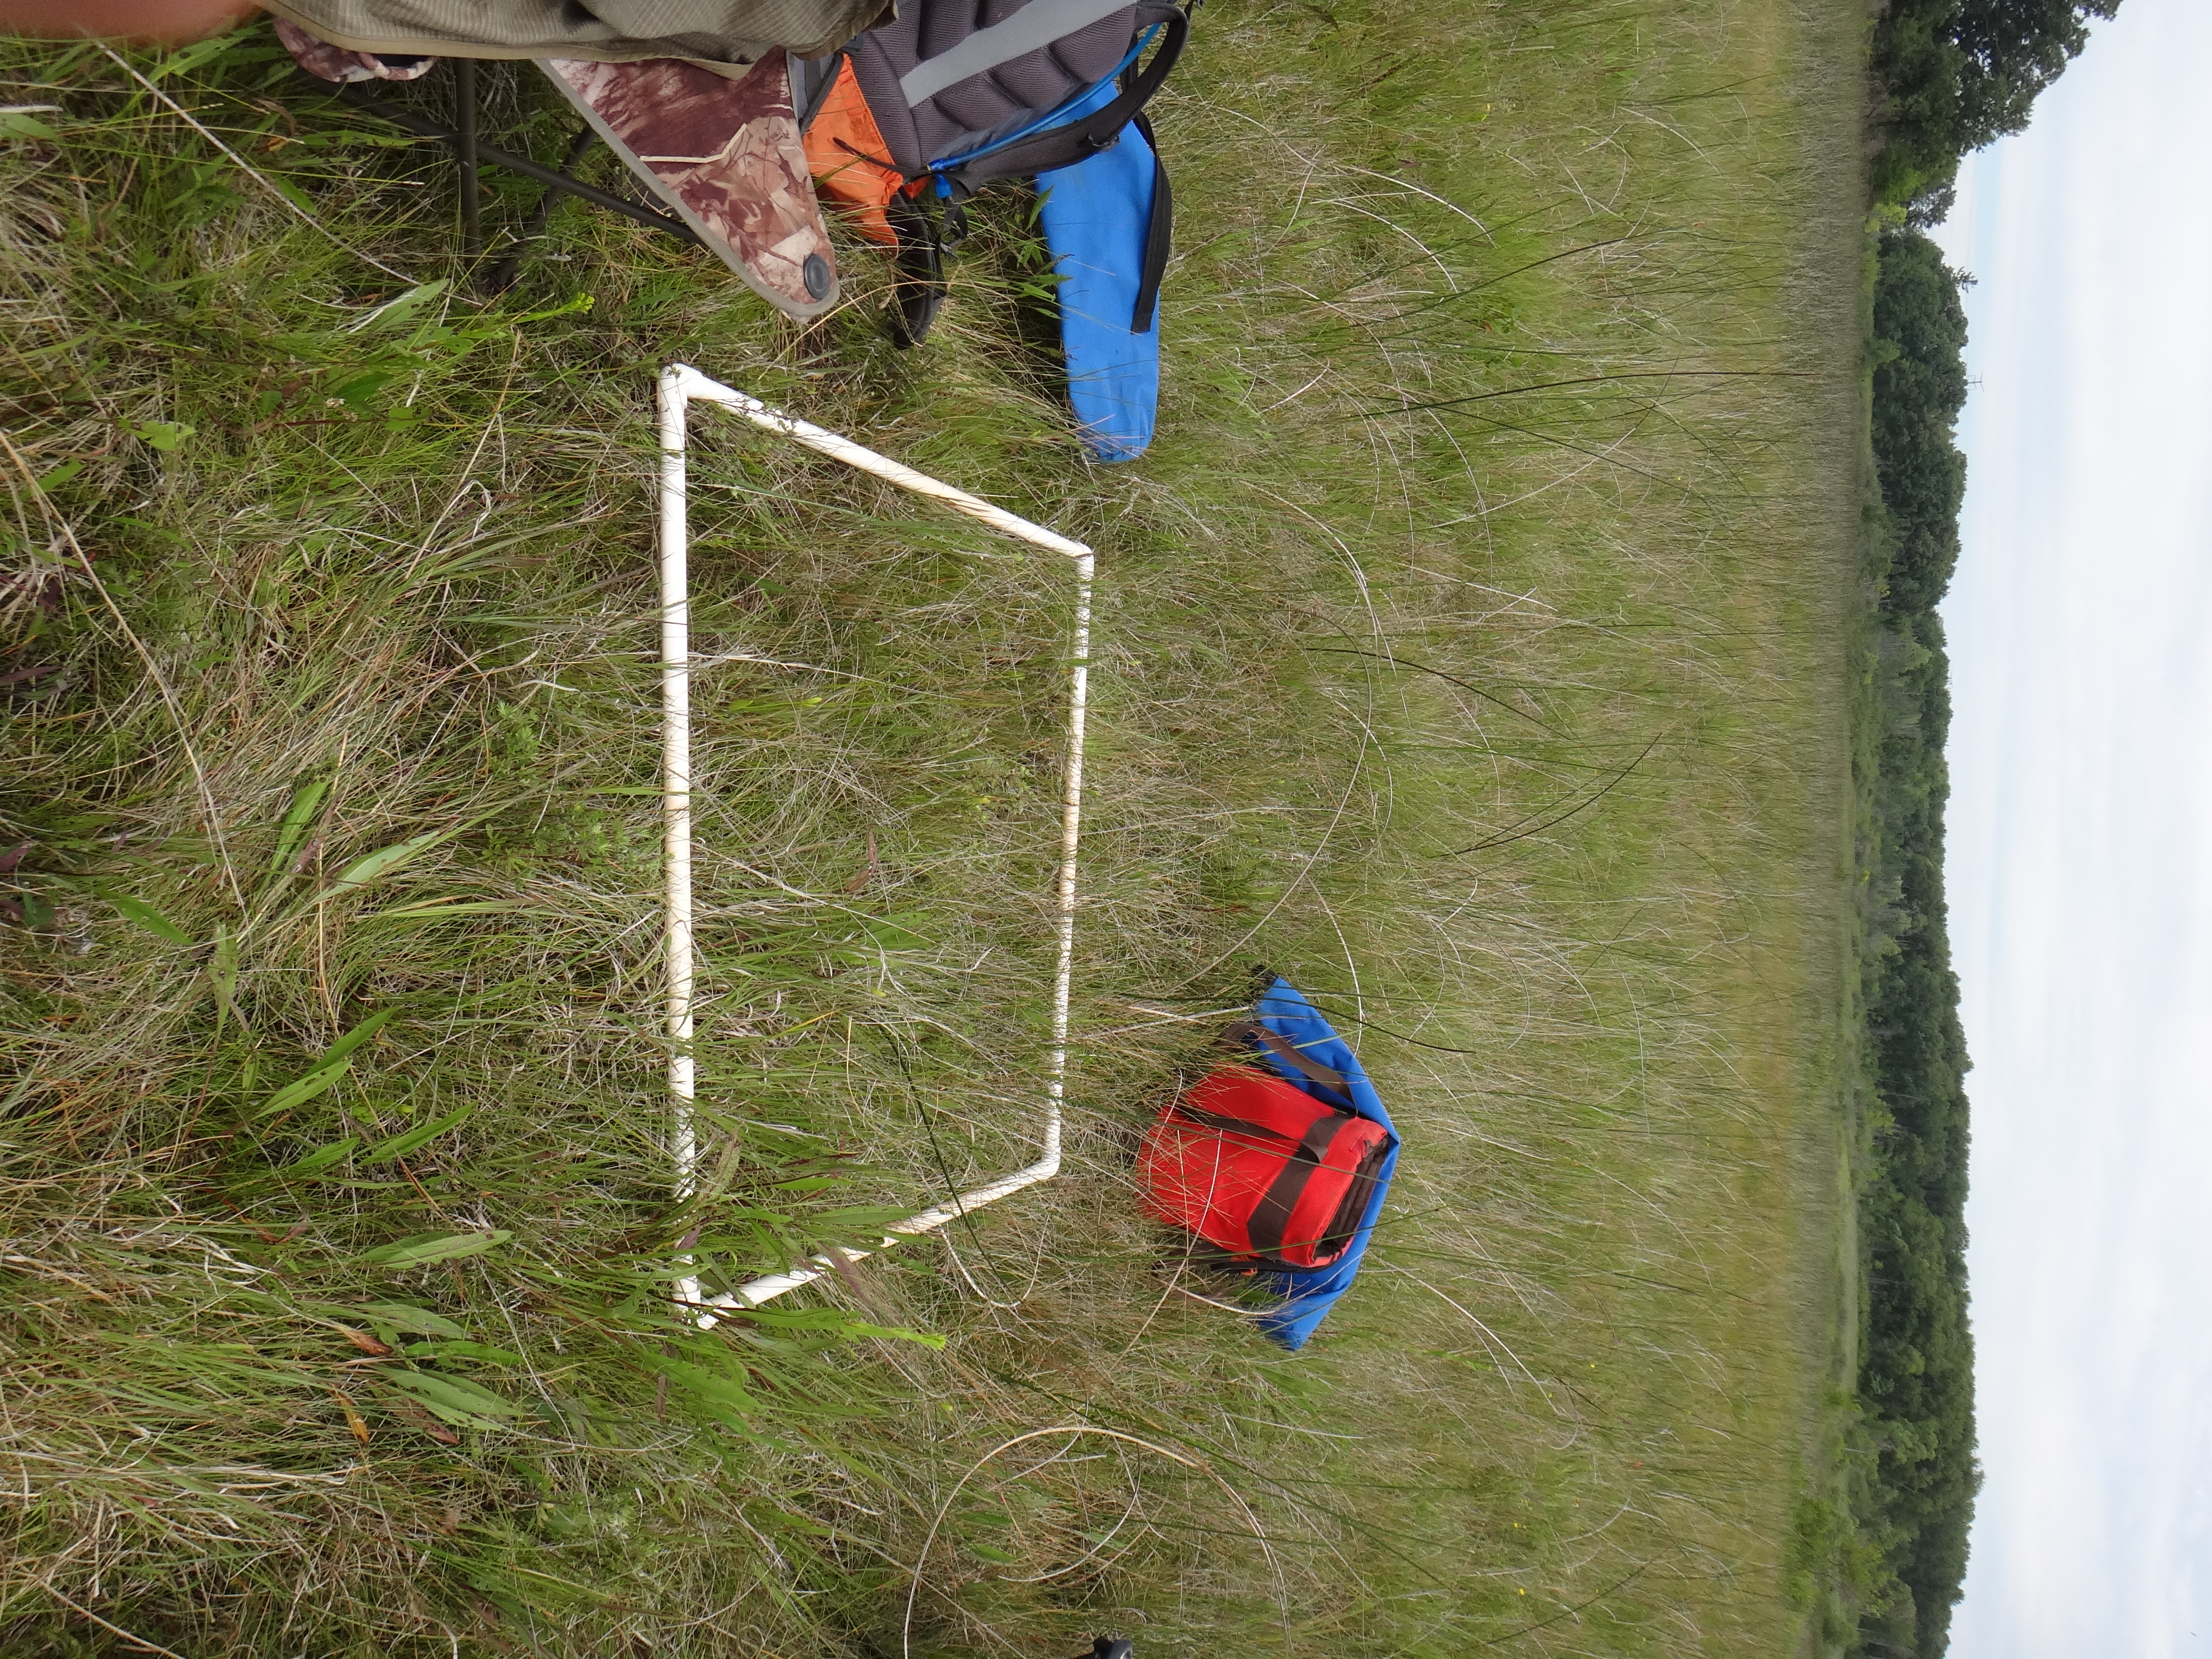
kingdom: Plantae
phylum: Tracheophyta
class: Magnoliopsida
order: Asterales
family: Asteraceae
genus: Solidago
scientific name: Solidago ohioensis
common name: Ohio goldenrod
